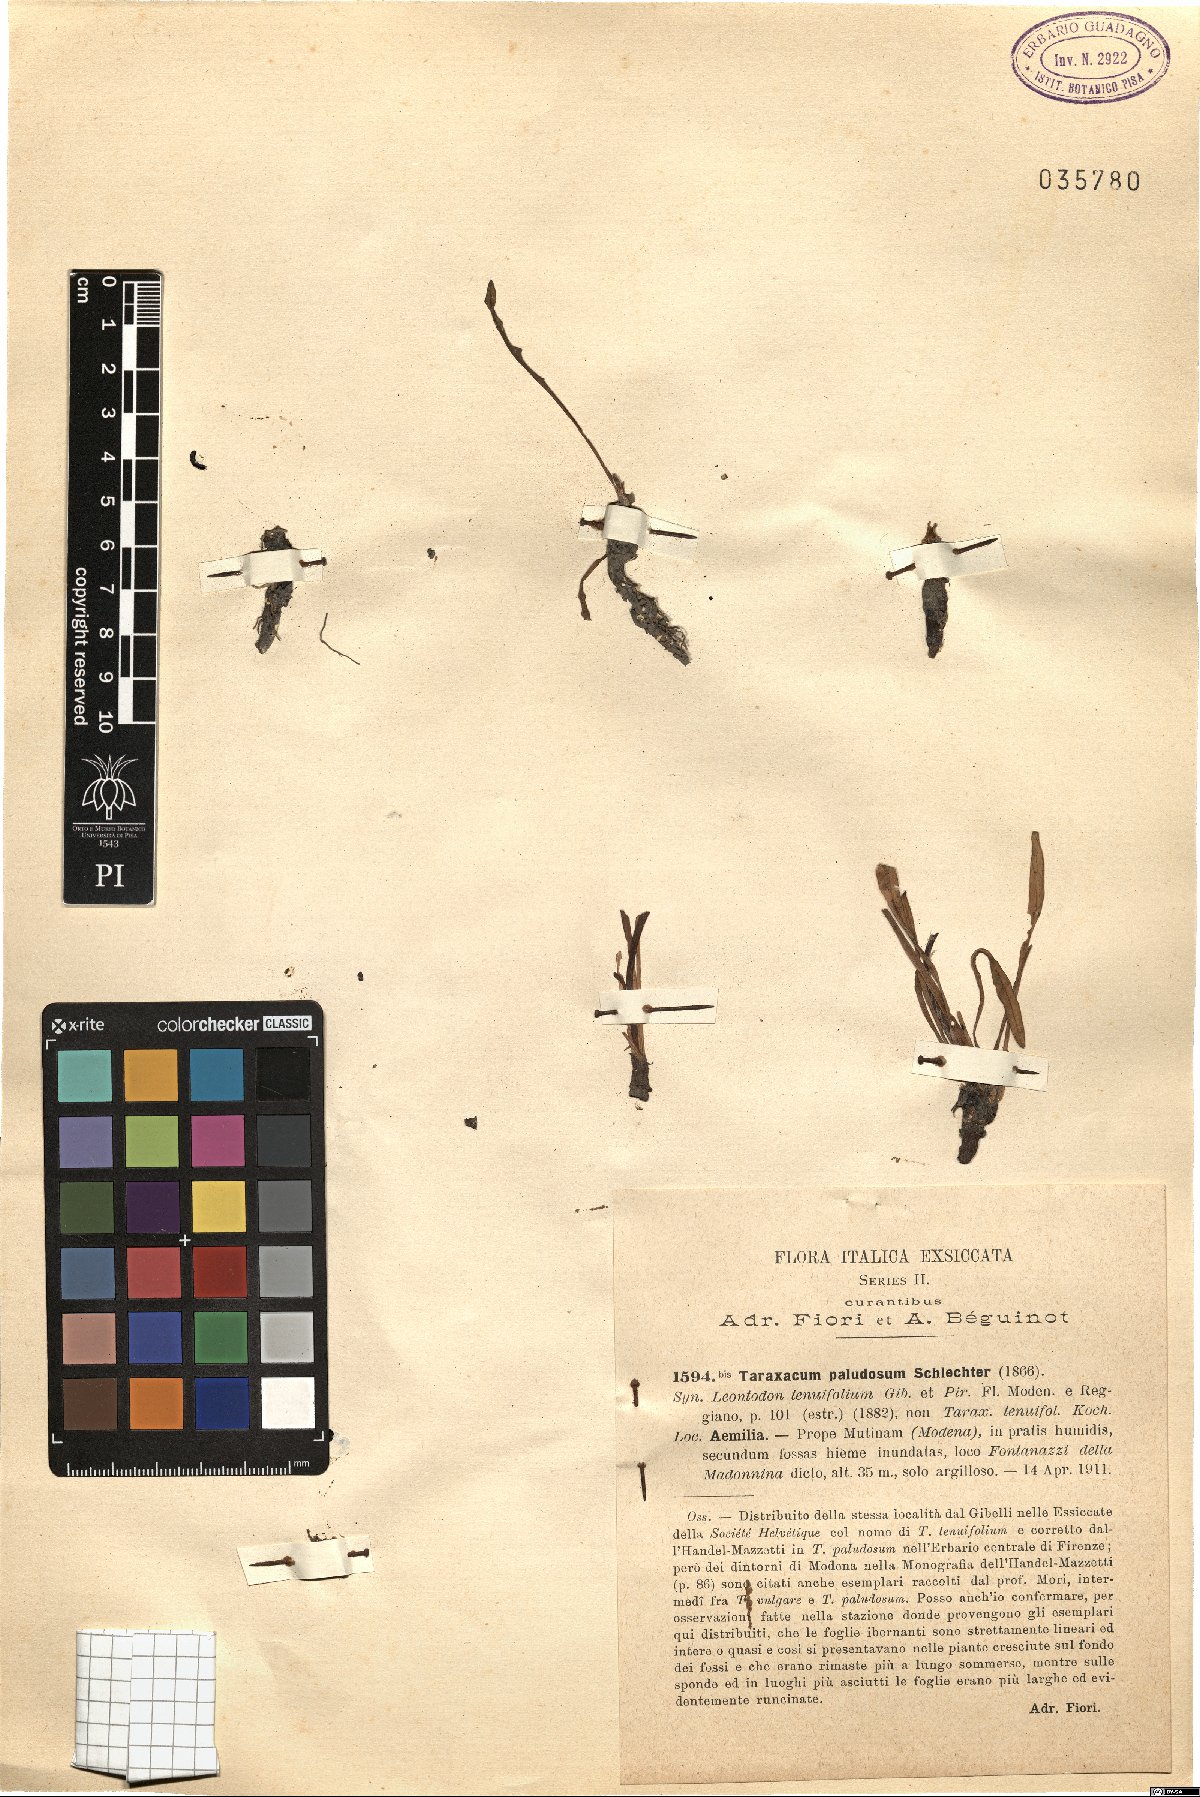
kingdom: Plantae
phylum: Tracheophyta
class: Magnoliopsida
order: Asterales
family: Asteraceae
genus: Taraxacum
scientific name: Taraxacum paludosum
